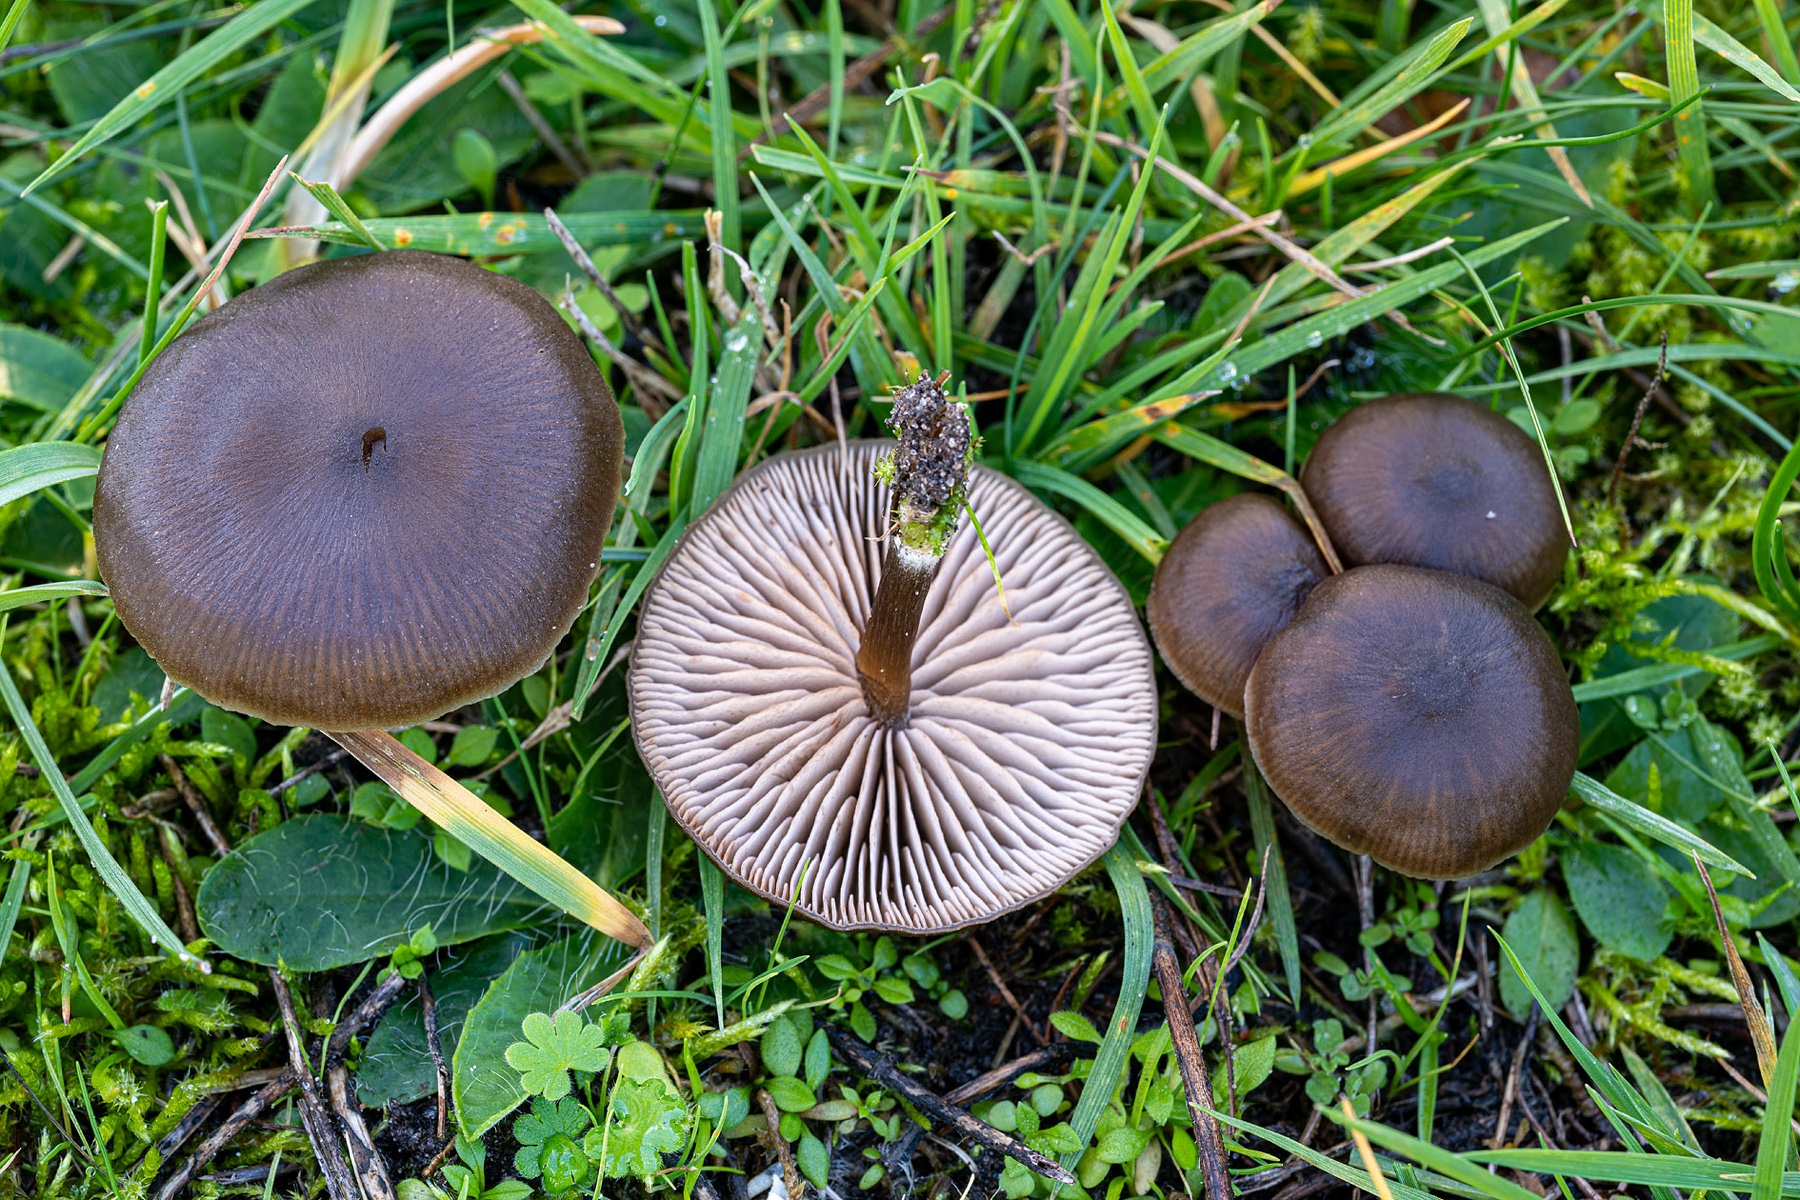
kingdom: Fungi
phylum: Basidiomycota
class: Agaricomycetes
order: Agaricales
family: Entolomataceae
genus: Entoloma
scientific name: Entoloma sericeum
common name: silkeglinsende rødblad
